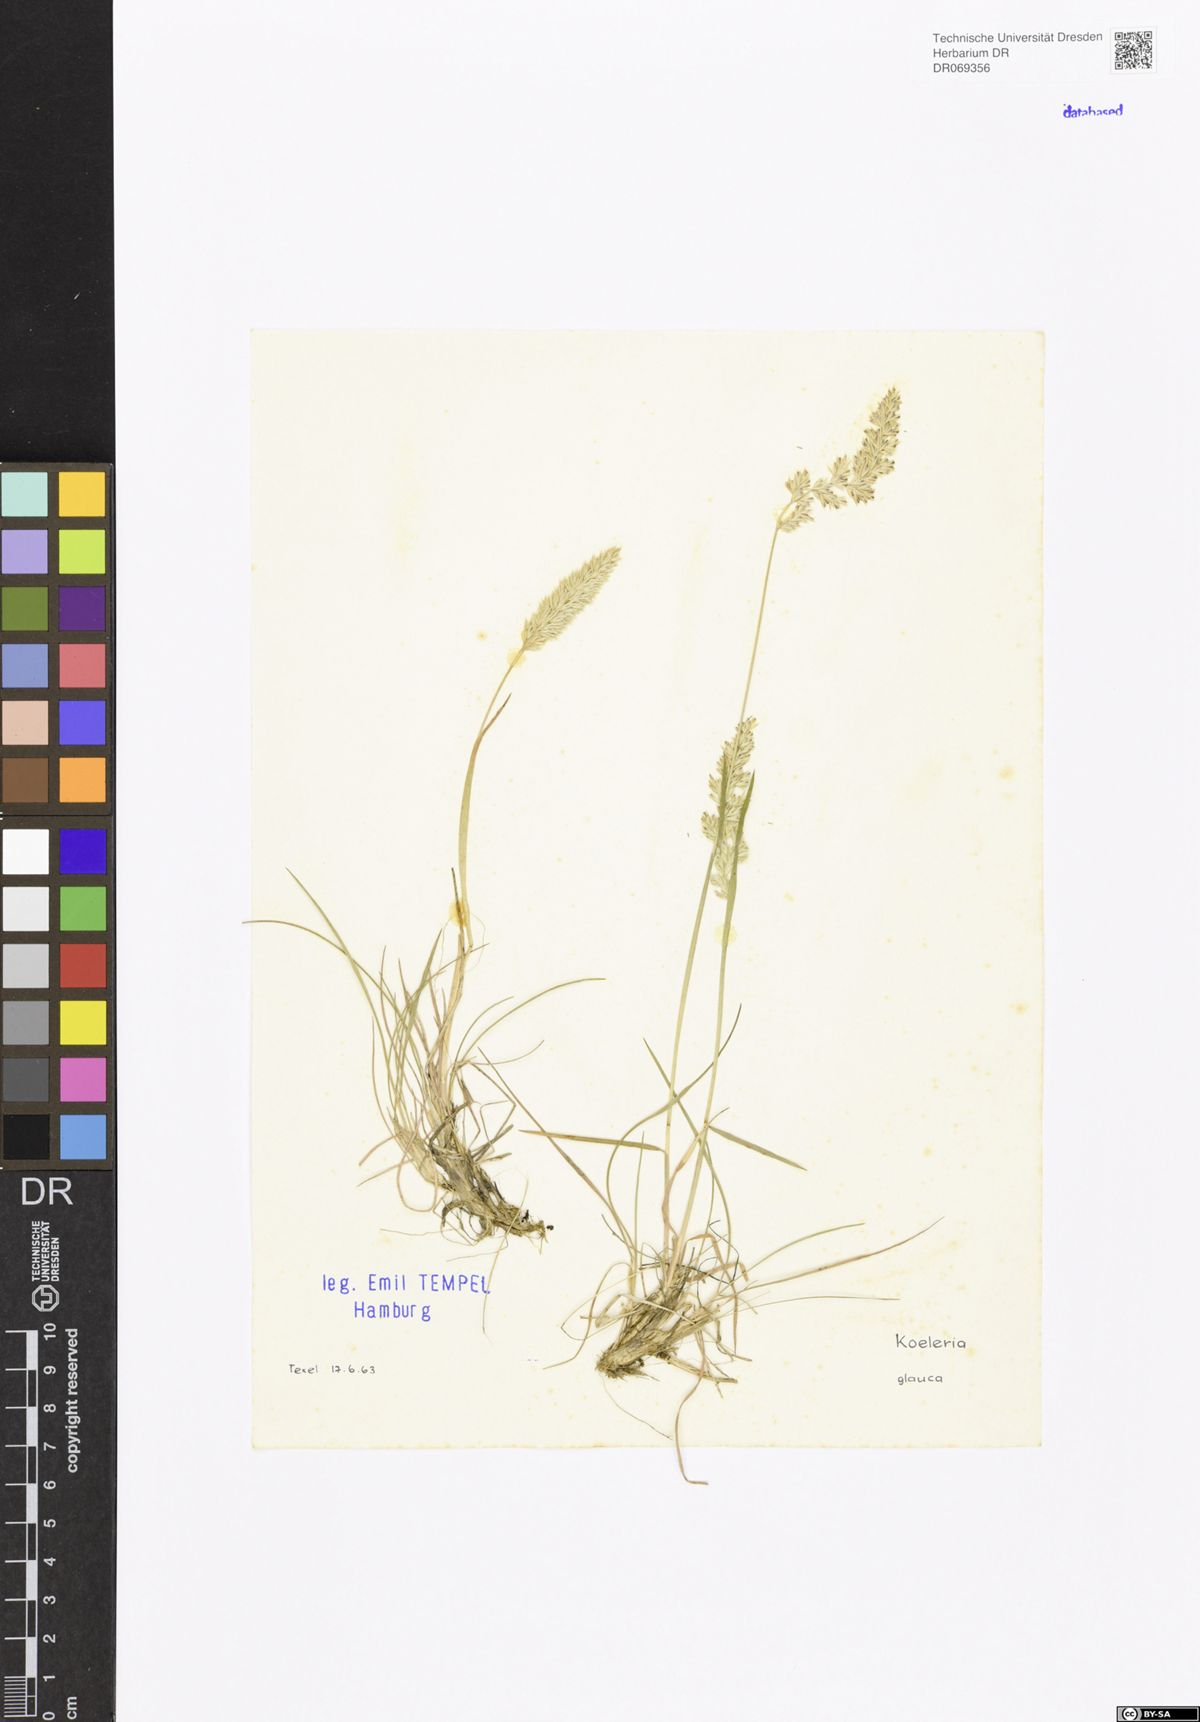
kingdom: Plantae
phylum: Tracheophyta
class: Liliopsida
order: Poales
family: Poaceae
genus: Koeleria
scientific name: Koeleria glauca
